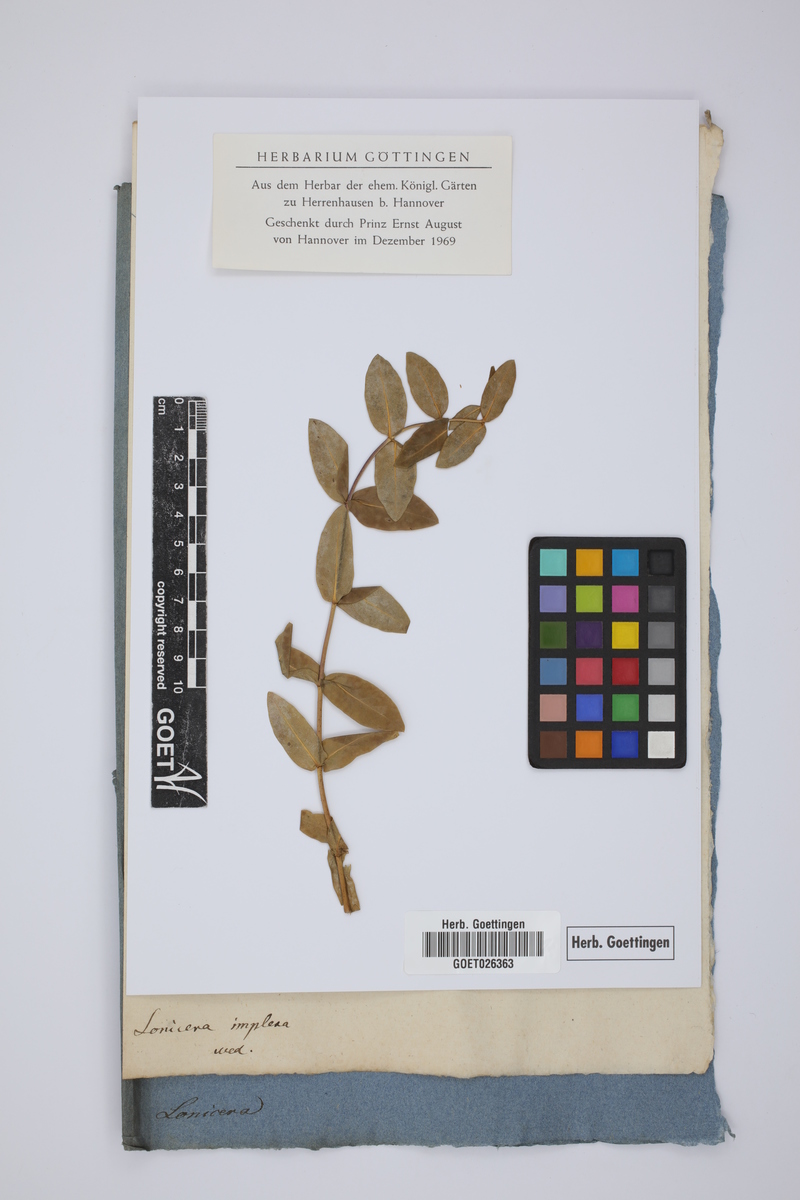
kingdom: Plantae
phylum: Tracheophyta
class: Magnoliopsida
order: Dipsacales
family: Caprifoliaceae
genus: Lonicera
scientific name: Lonicera implexa
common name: Minorca honeysuckle
